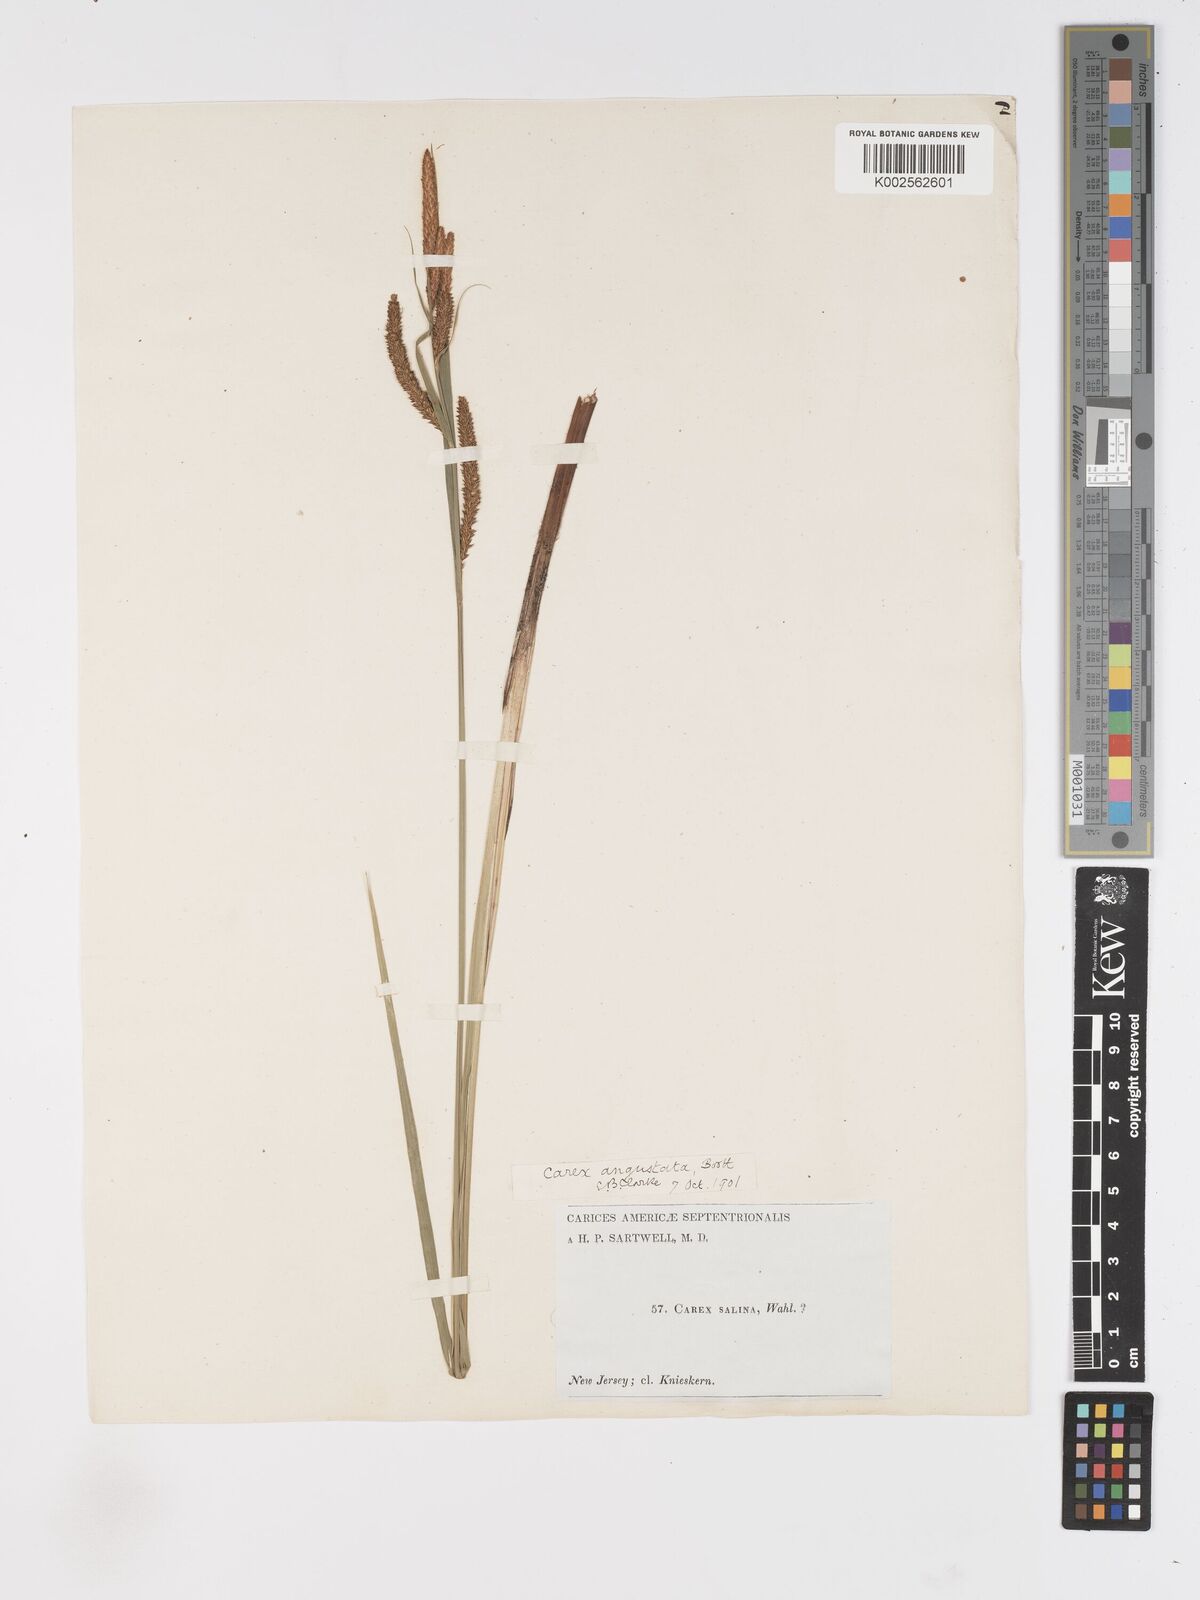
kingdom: Plantae
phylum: Tracheophyta
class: Liliopsida
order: Poales
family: Cyperaceae
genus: Carex
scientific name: Carex stricta
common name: Hummock sedge
